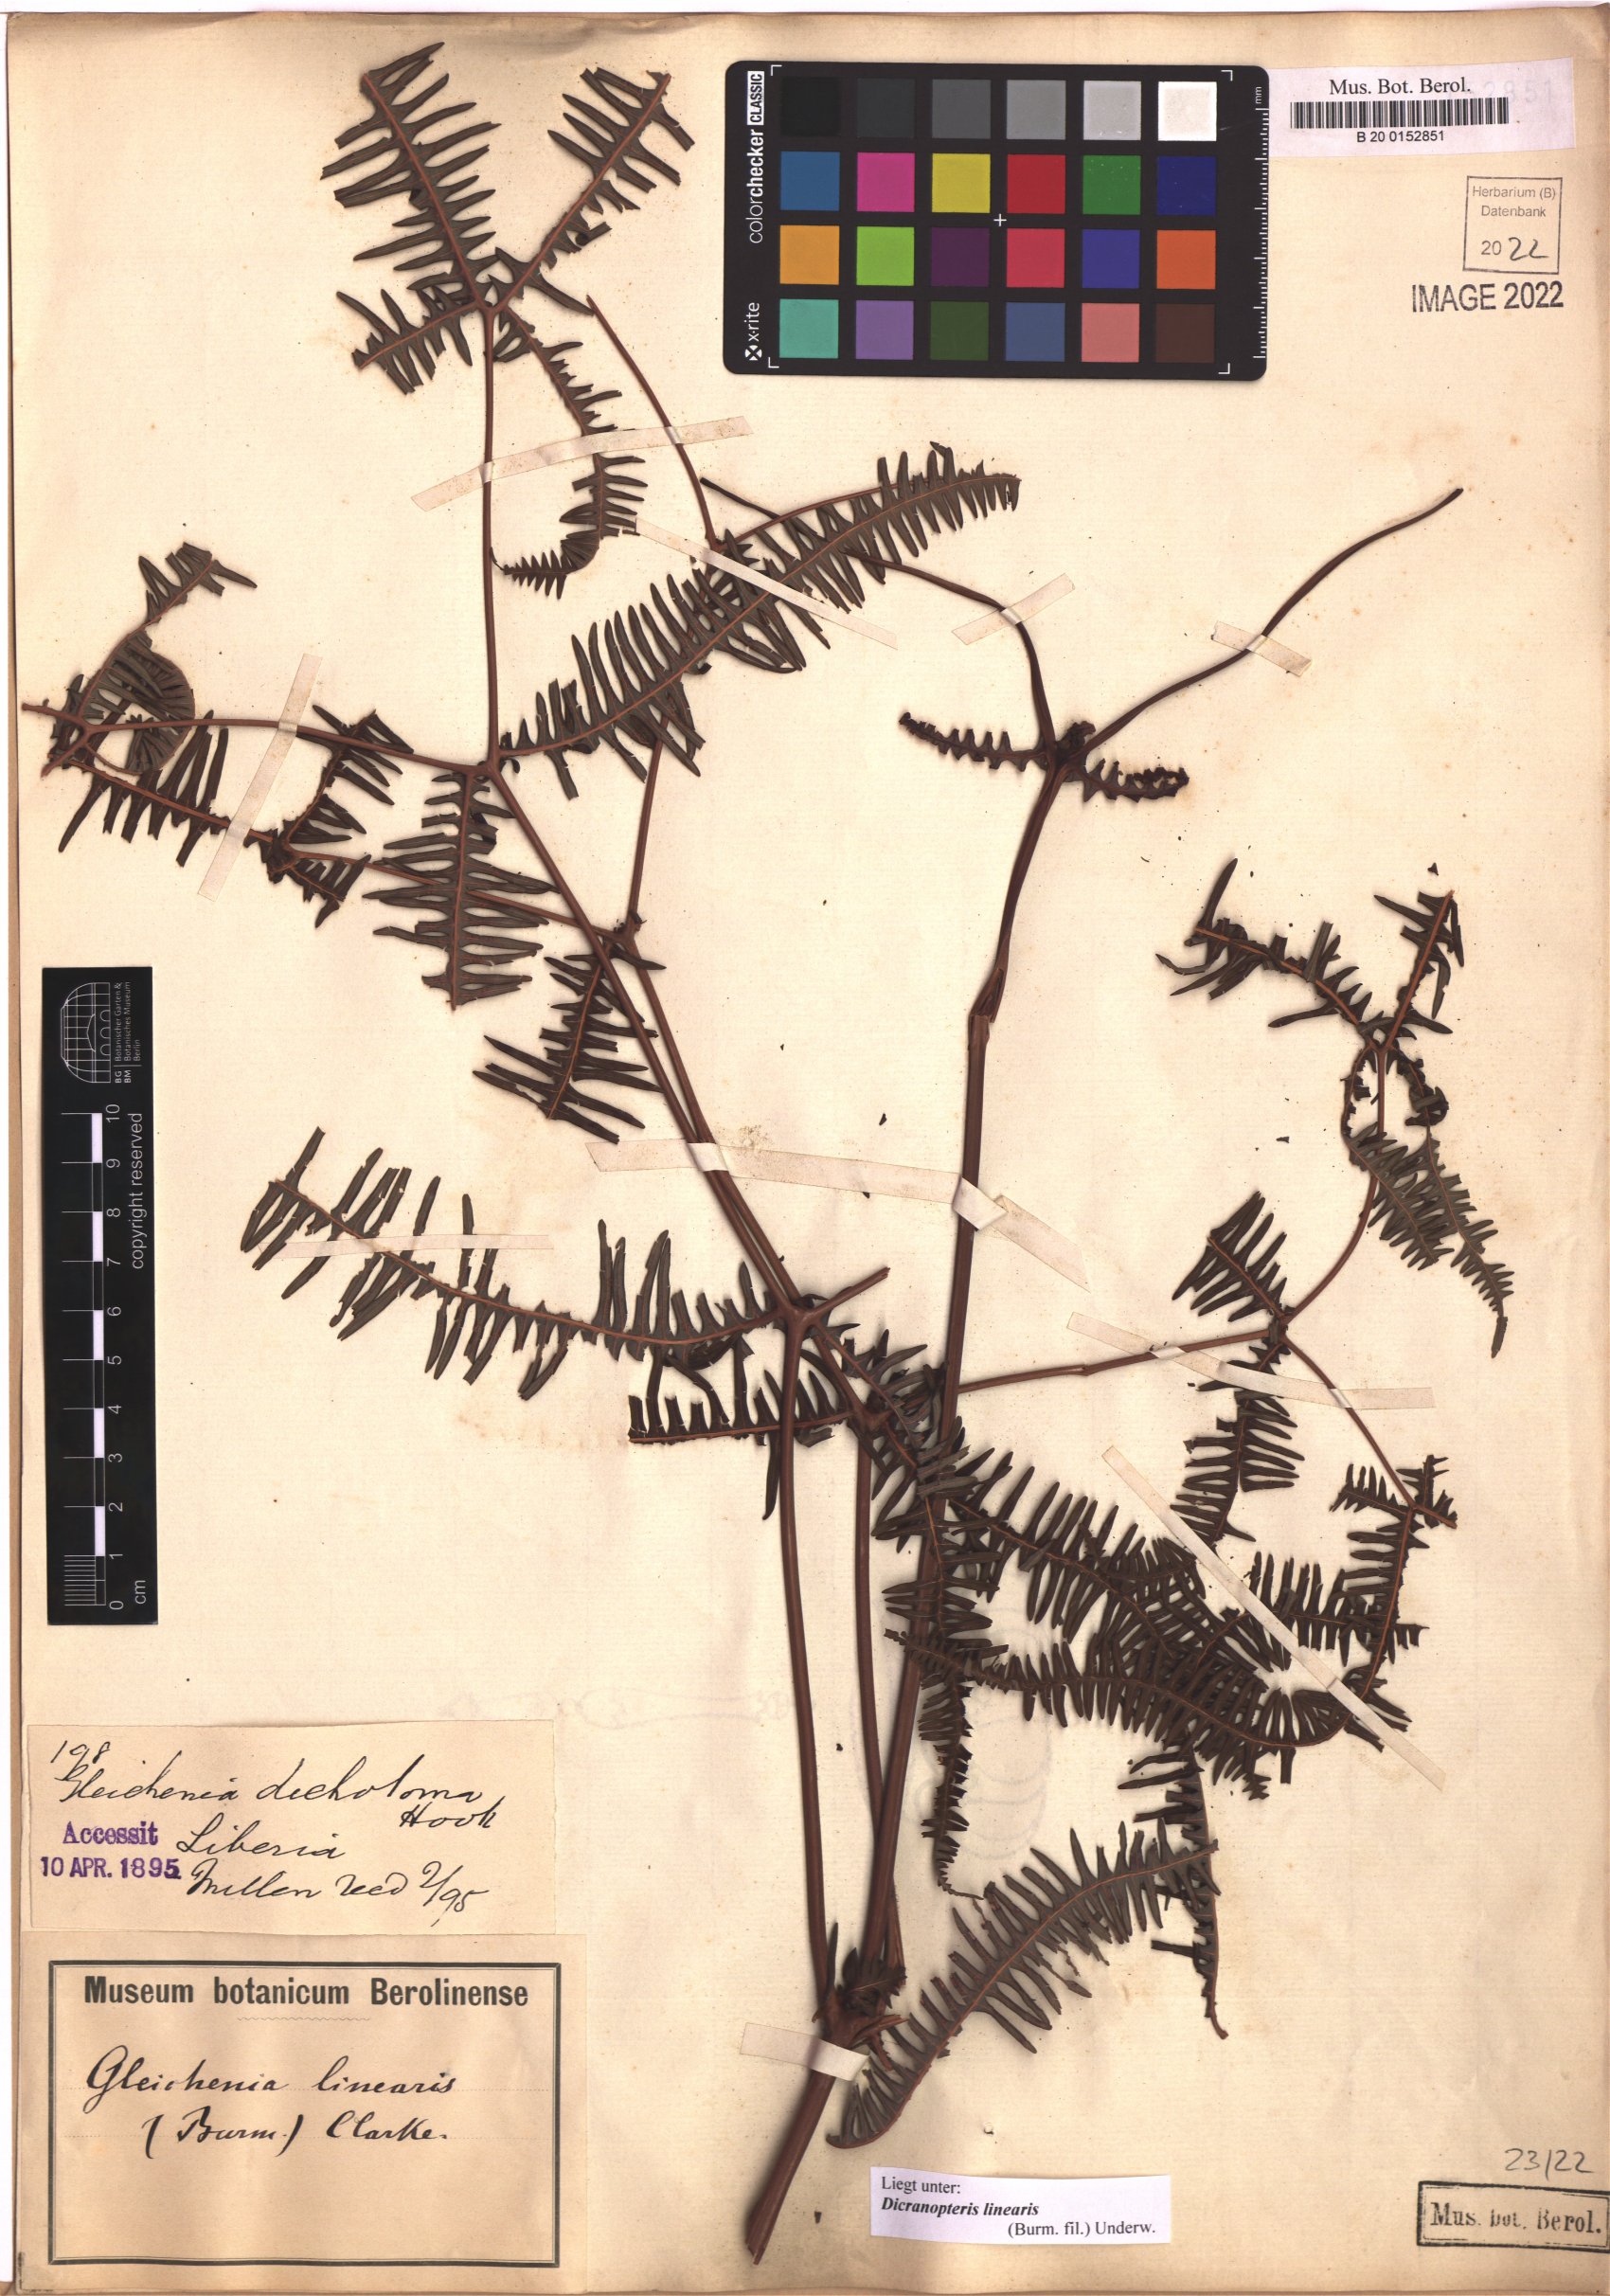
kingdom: Plantae
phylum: Tracheophyta
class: Polypodiopsida
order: Gleicheniales
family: Gleicheniaceae
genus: Dicranopteris
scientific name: Dicranopteris linearis
